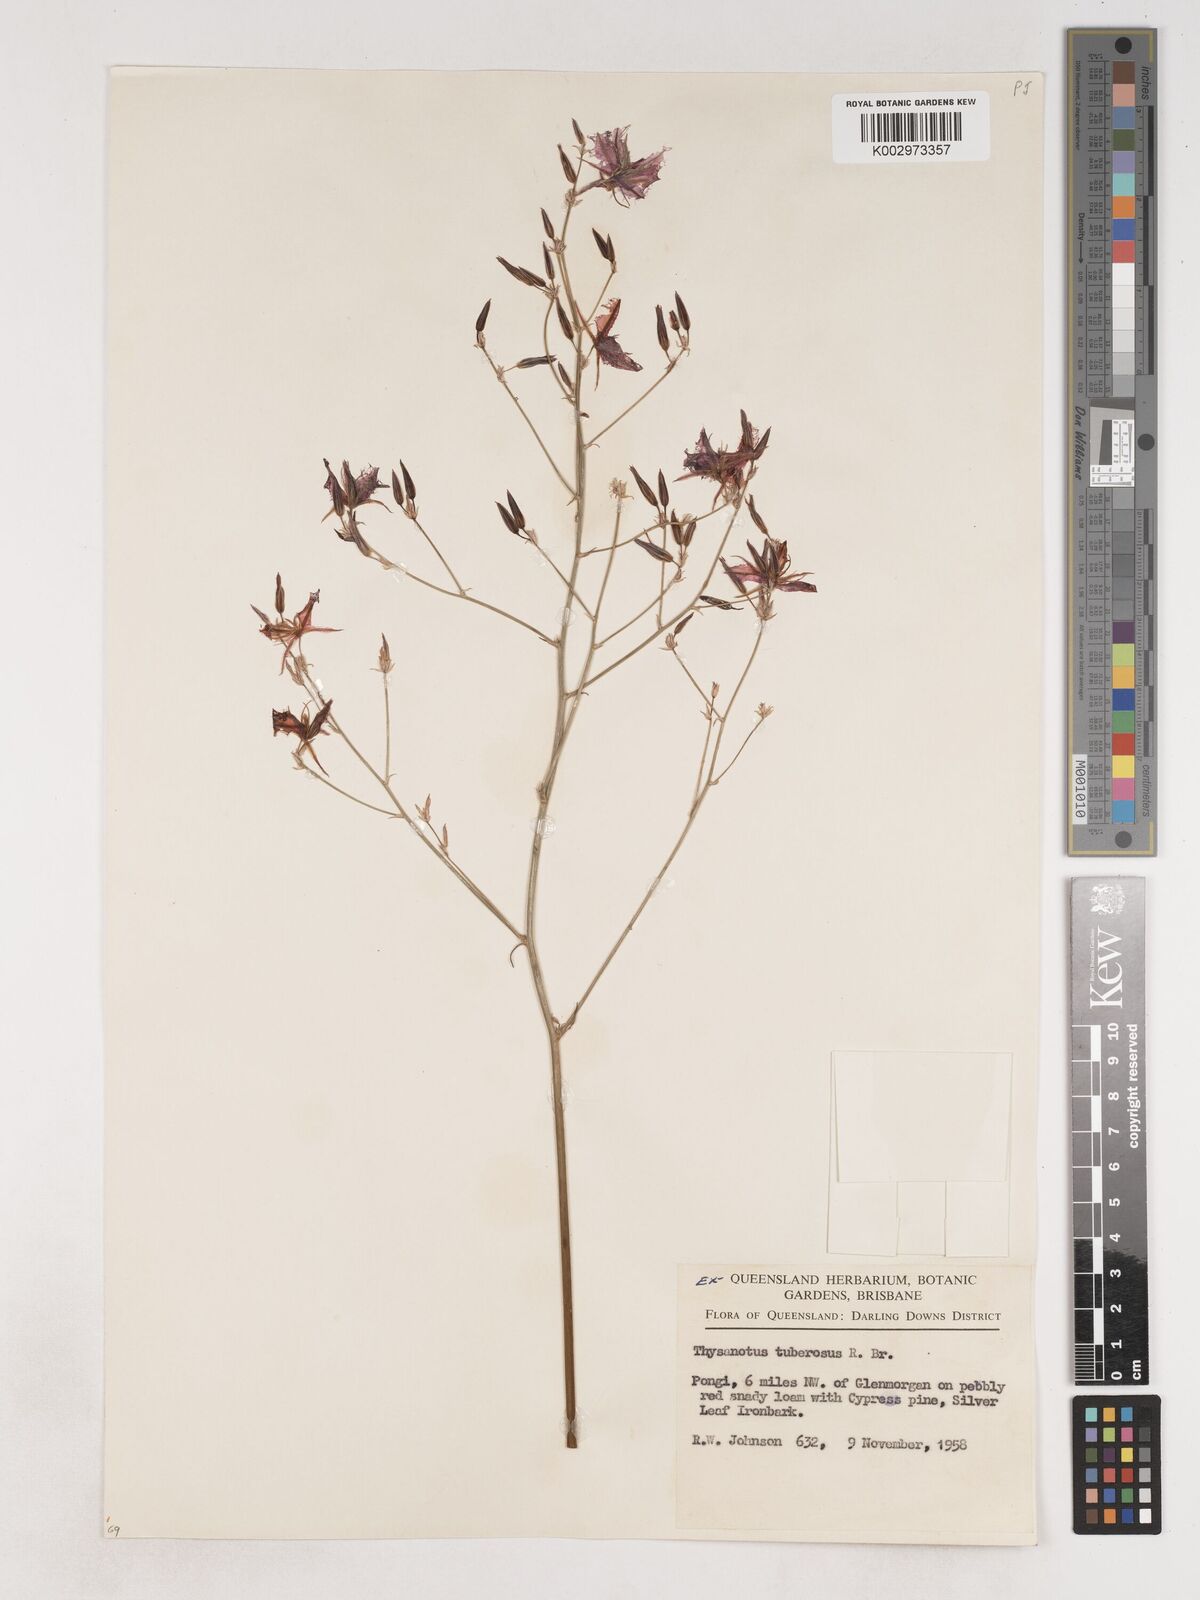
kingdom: Plantae
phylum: Tracheophyta
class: Liliopsida
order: Asparagales
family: Asparagaceae
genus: Thysanotus
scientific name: Thysanotus tuberosus
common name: Common fringed-lily
